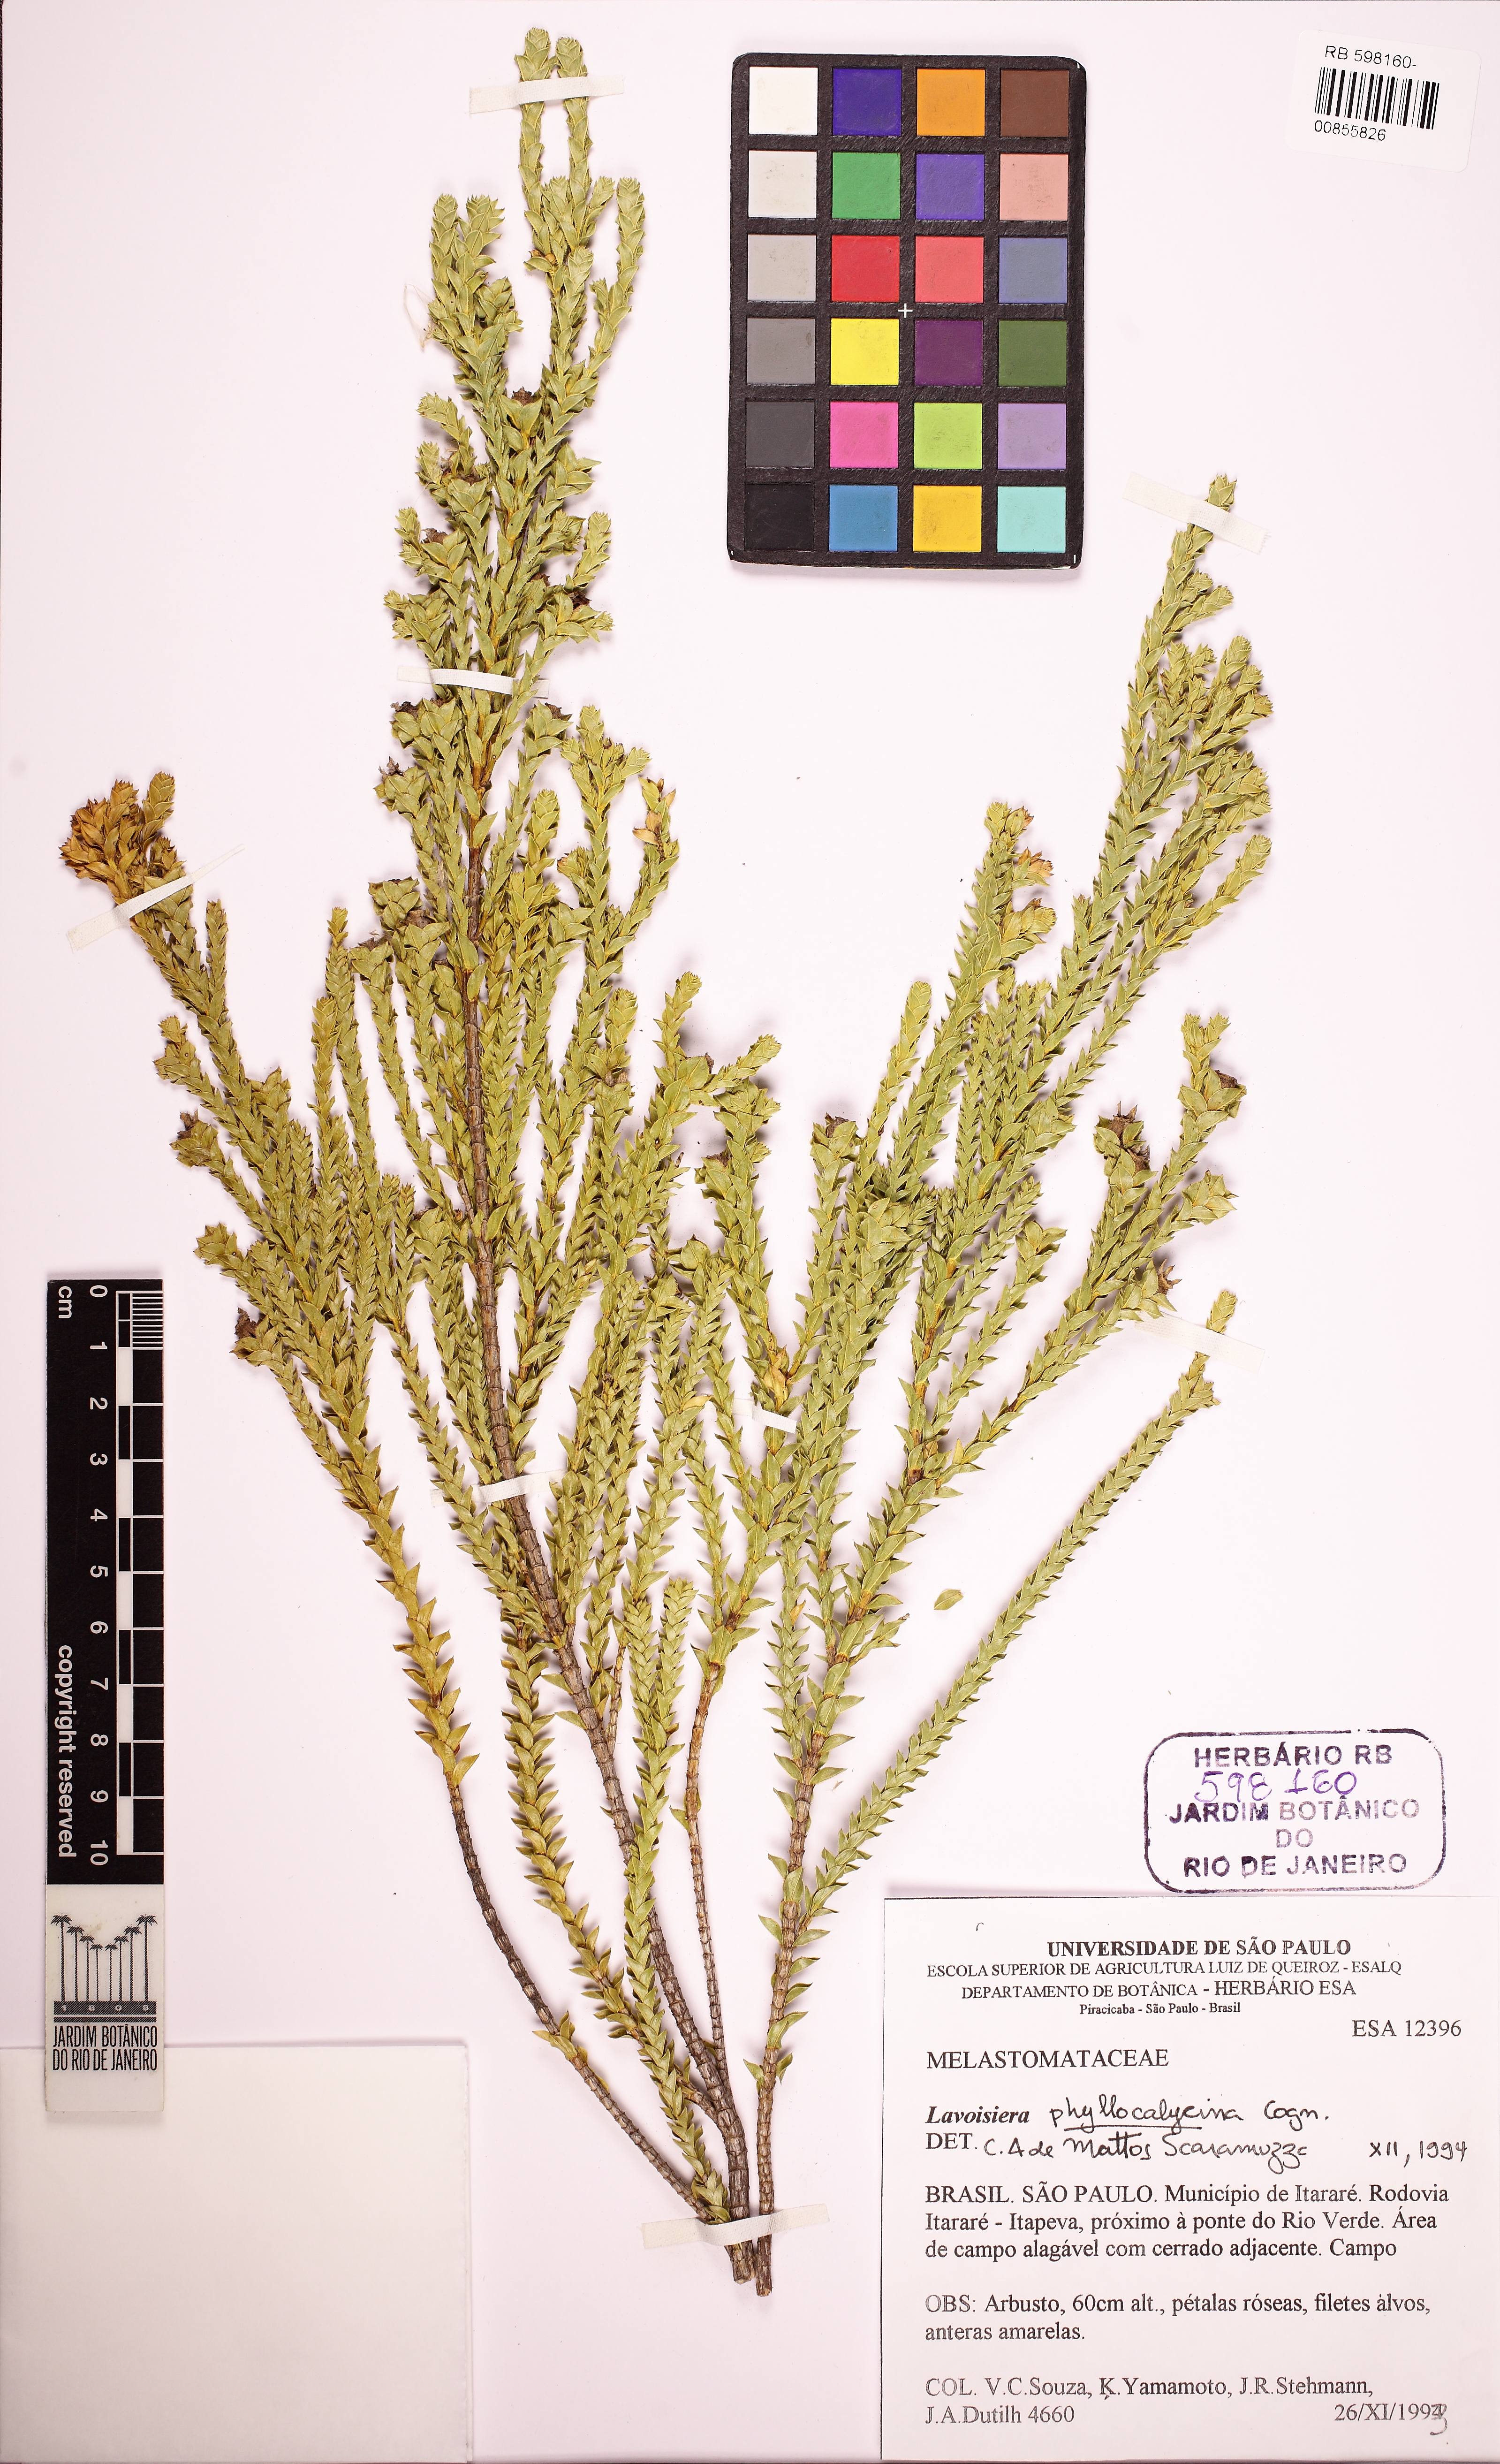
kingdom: Plantae
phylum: Tracheophyta
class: Magnoliopsida
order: Myrtales
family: Melastomataceae
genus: Microlicia
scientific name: Microlicia cataphracta
